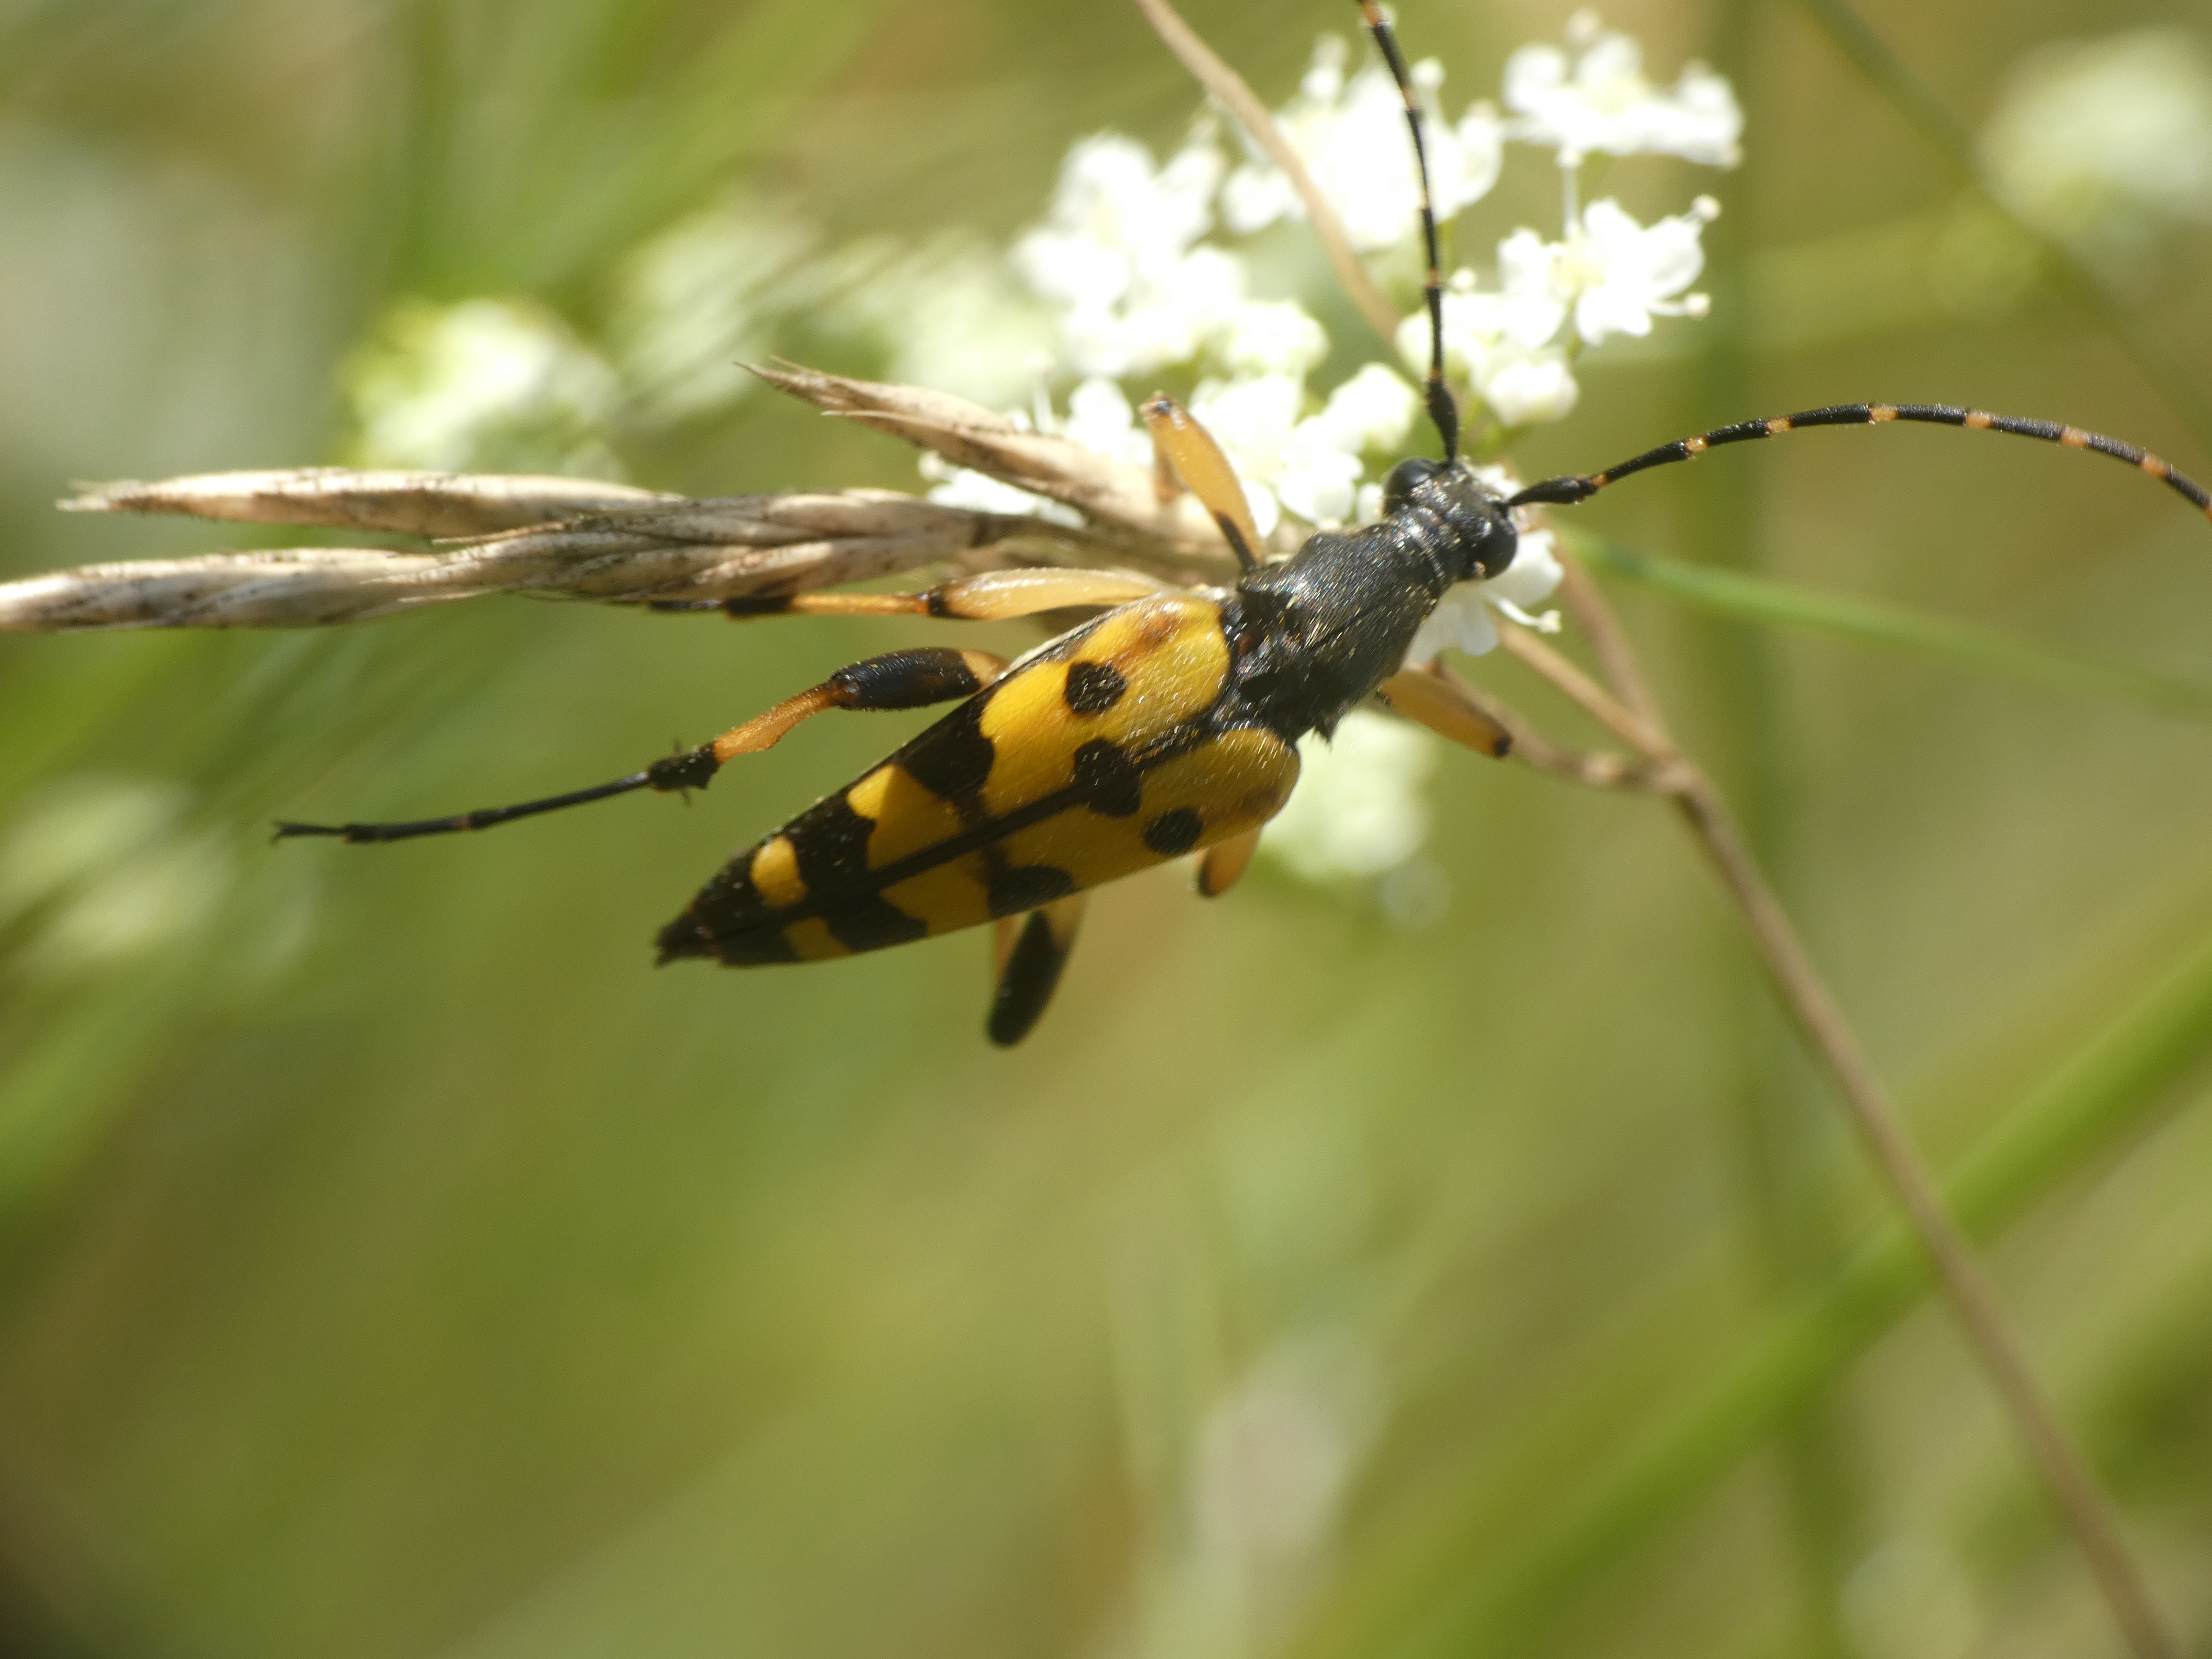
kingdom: Animalia
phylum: Arthropoda
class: Insecta
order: Coleoptera
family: Cerambycidae
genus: Rutpela
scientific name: Rutpela maculata
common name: Sydlig blomsterbuk
